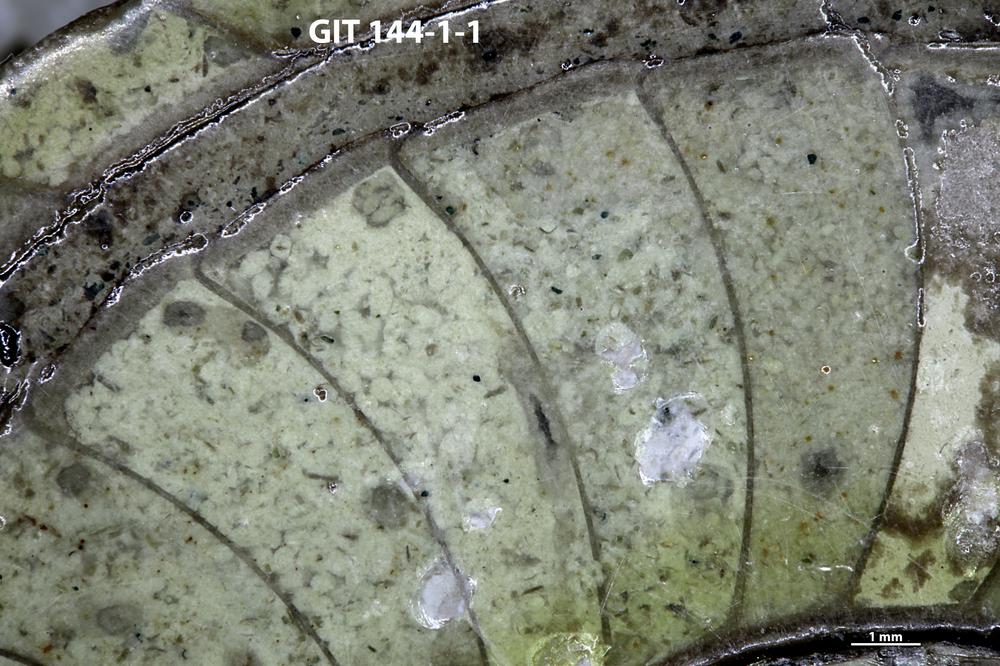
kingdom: Animalia
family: Coprulidae
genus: Coprulus
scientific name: Coprulus
